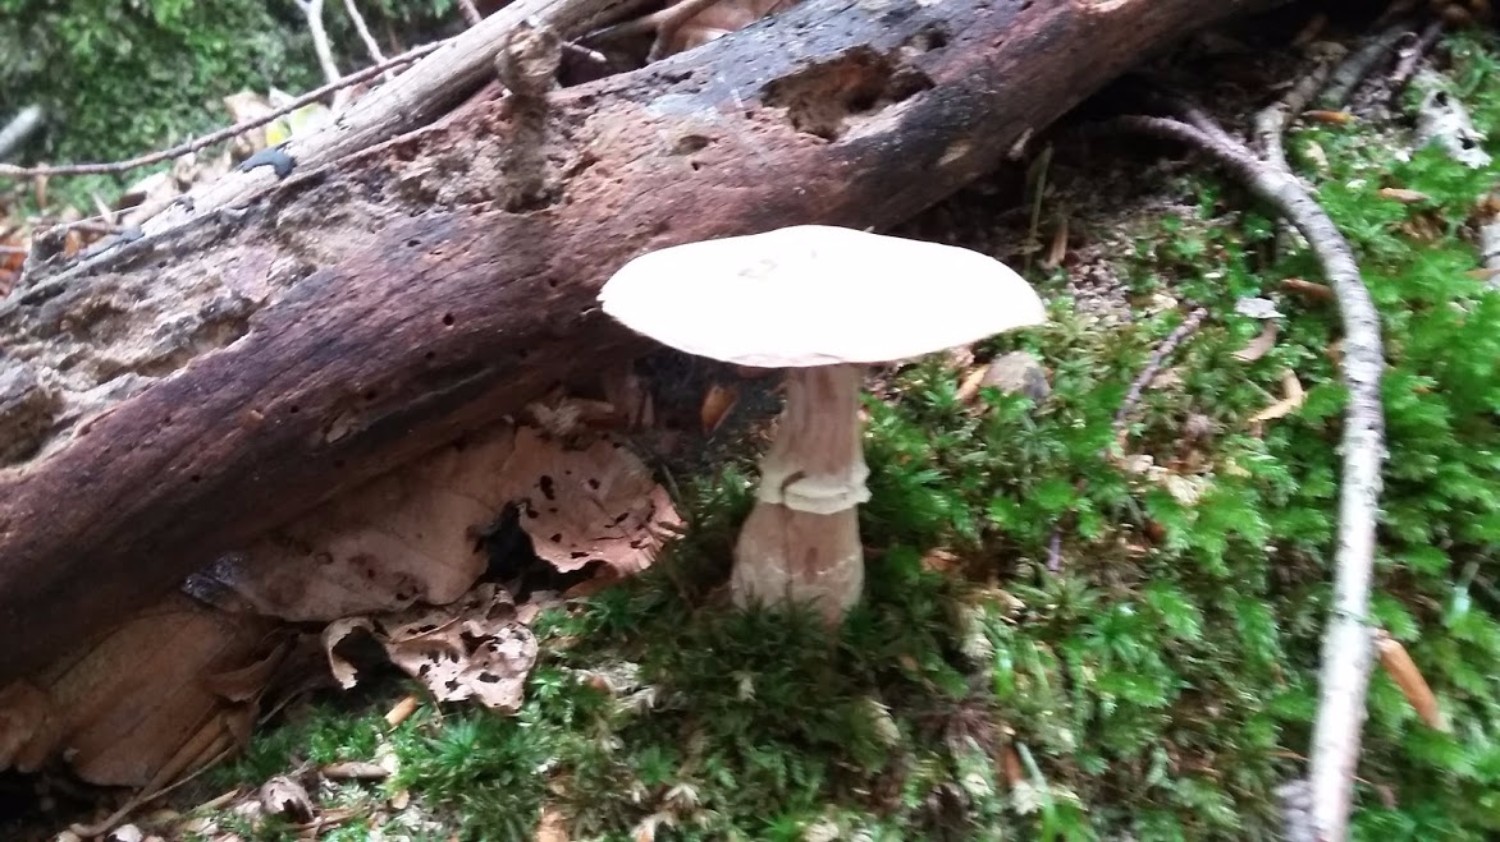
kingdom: Fungi
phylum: Basidiomycota
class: Agaricomycetes
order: Agaricales
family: Cortinariaceae
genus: Cortinarius
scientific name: Cortinarius torvus
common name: champignonagtig slørhat
